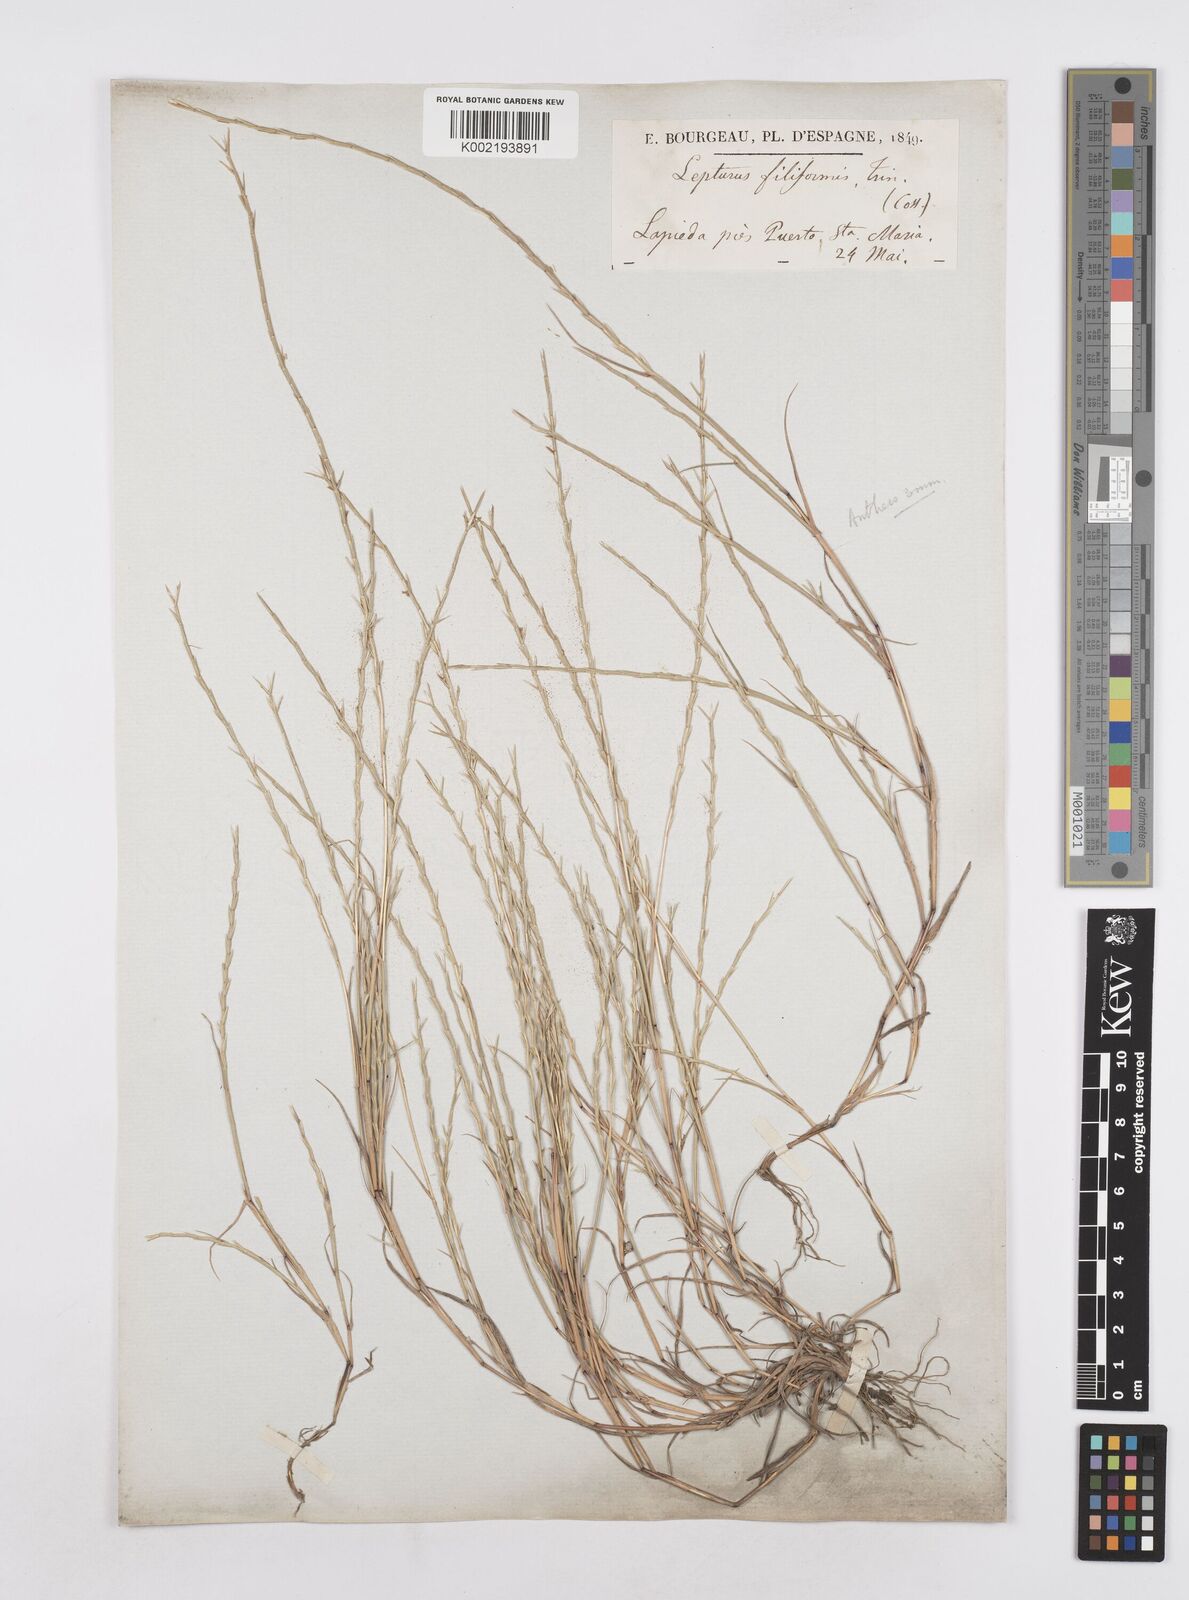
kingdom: Plantae
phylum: Tracheophyta
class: Liliopsida
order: Poales
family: Poaceae
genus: Parapholis
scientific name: Parapholis pycnantha
